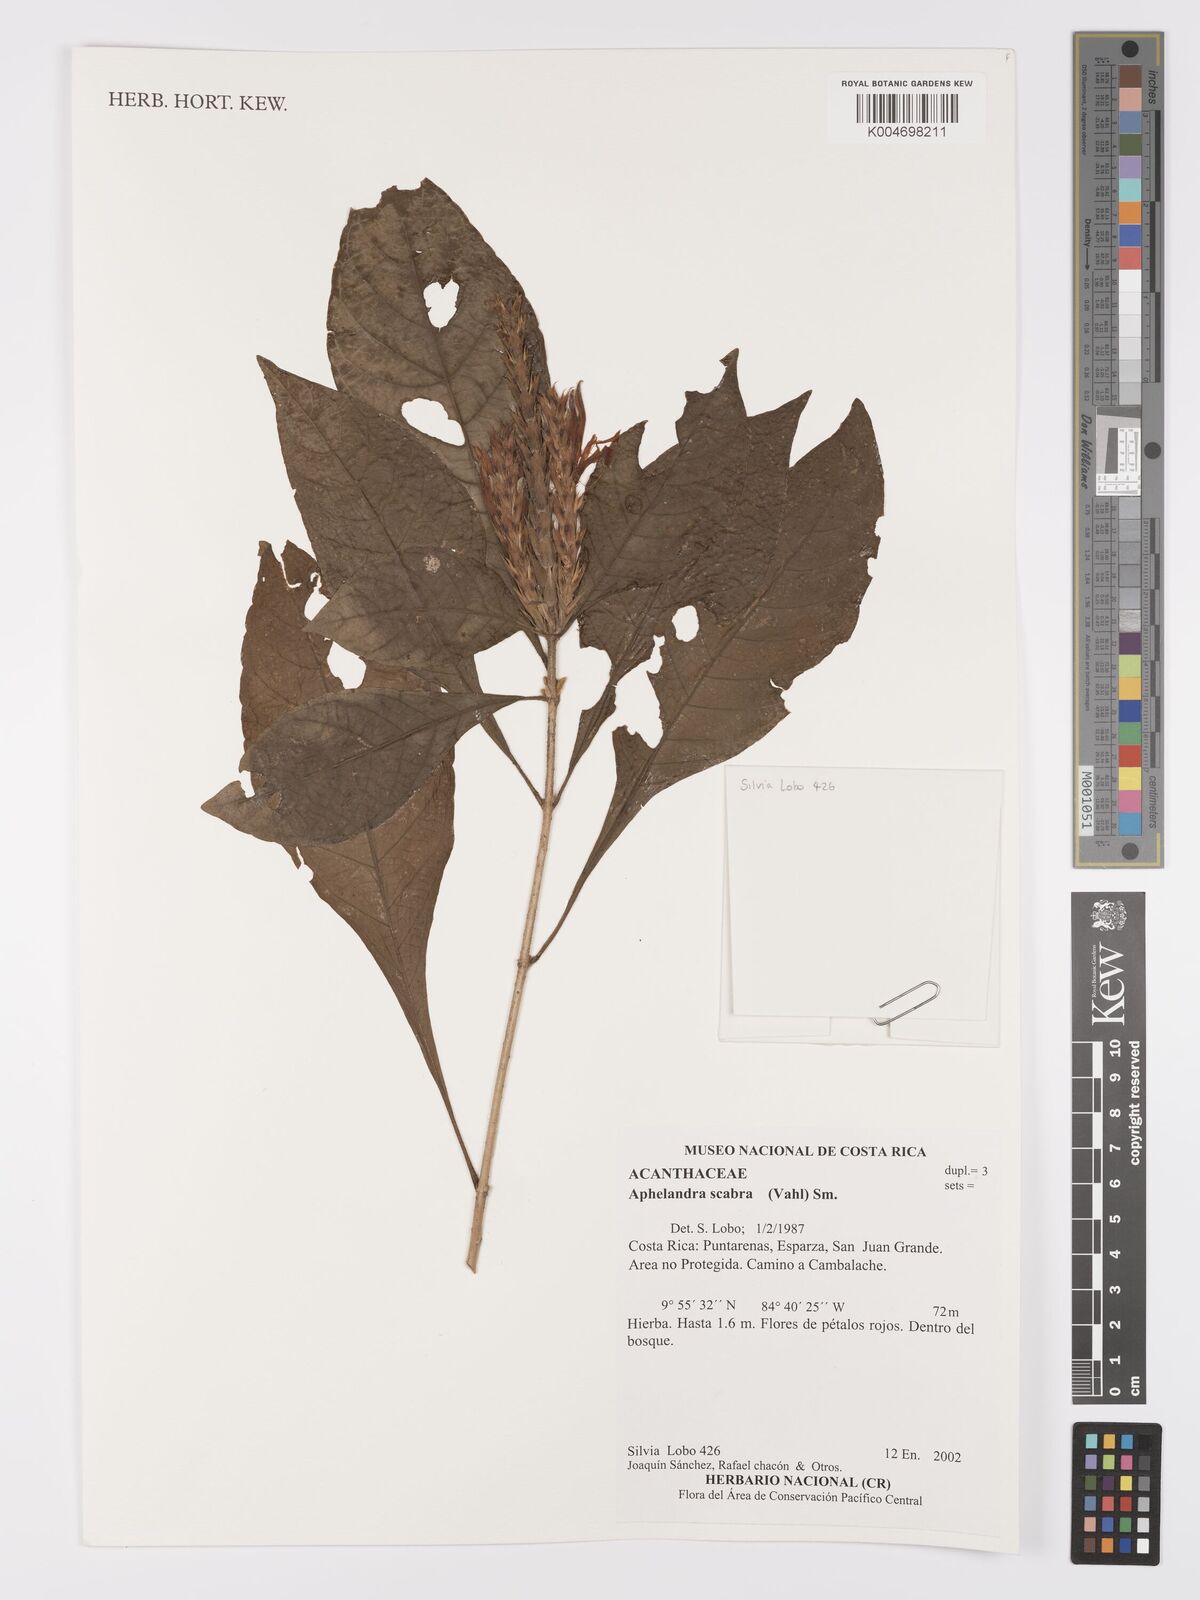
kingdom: Plantae
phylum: Tracheophyta
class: Magnoliopsida
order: Lamiales
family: Acanthaceae
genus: Aphelandra
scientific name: Aphelandra scabra
